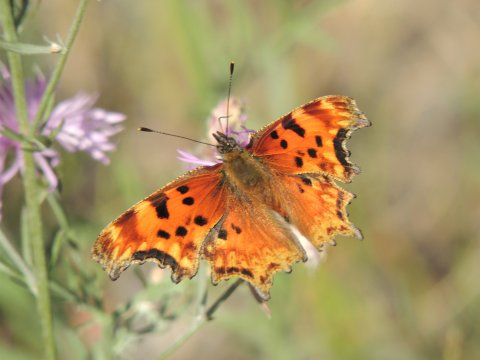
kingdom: Animalia
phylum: Arthropoda
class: Insecta
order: Lepidoptera
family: Nymphalidae
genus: Polygonia
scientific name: Polygonia gracilis
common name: Hoary Comma
